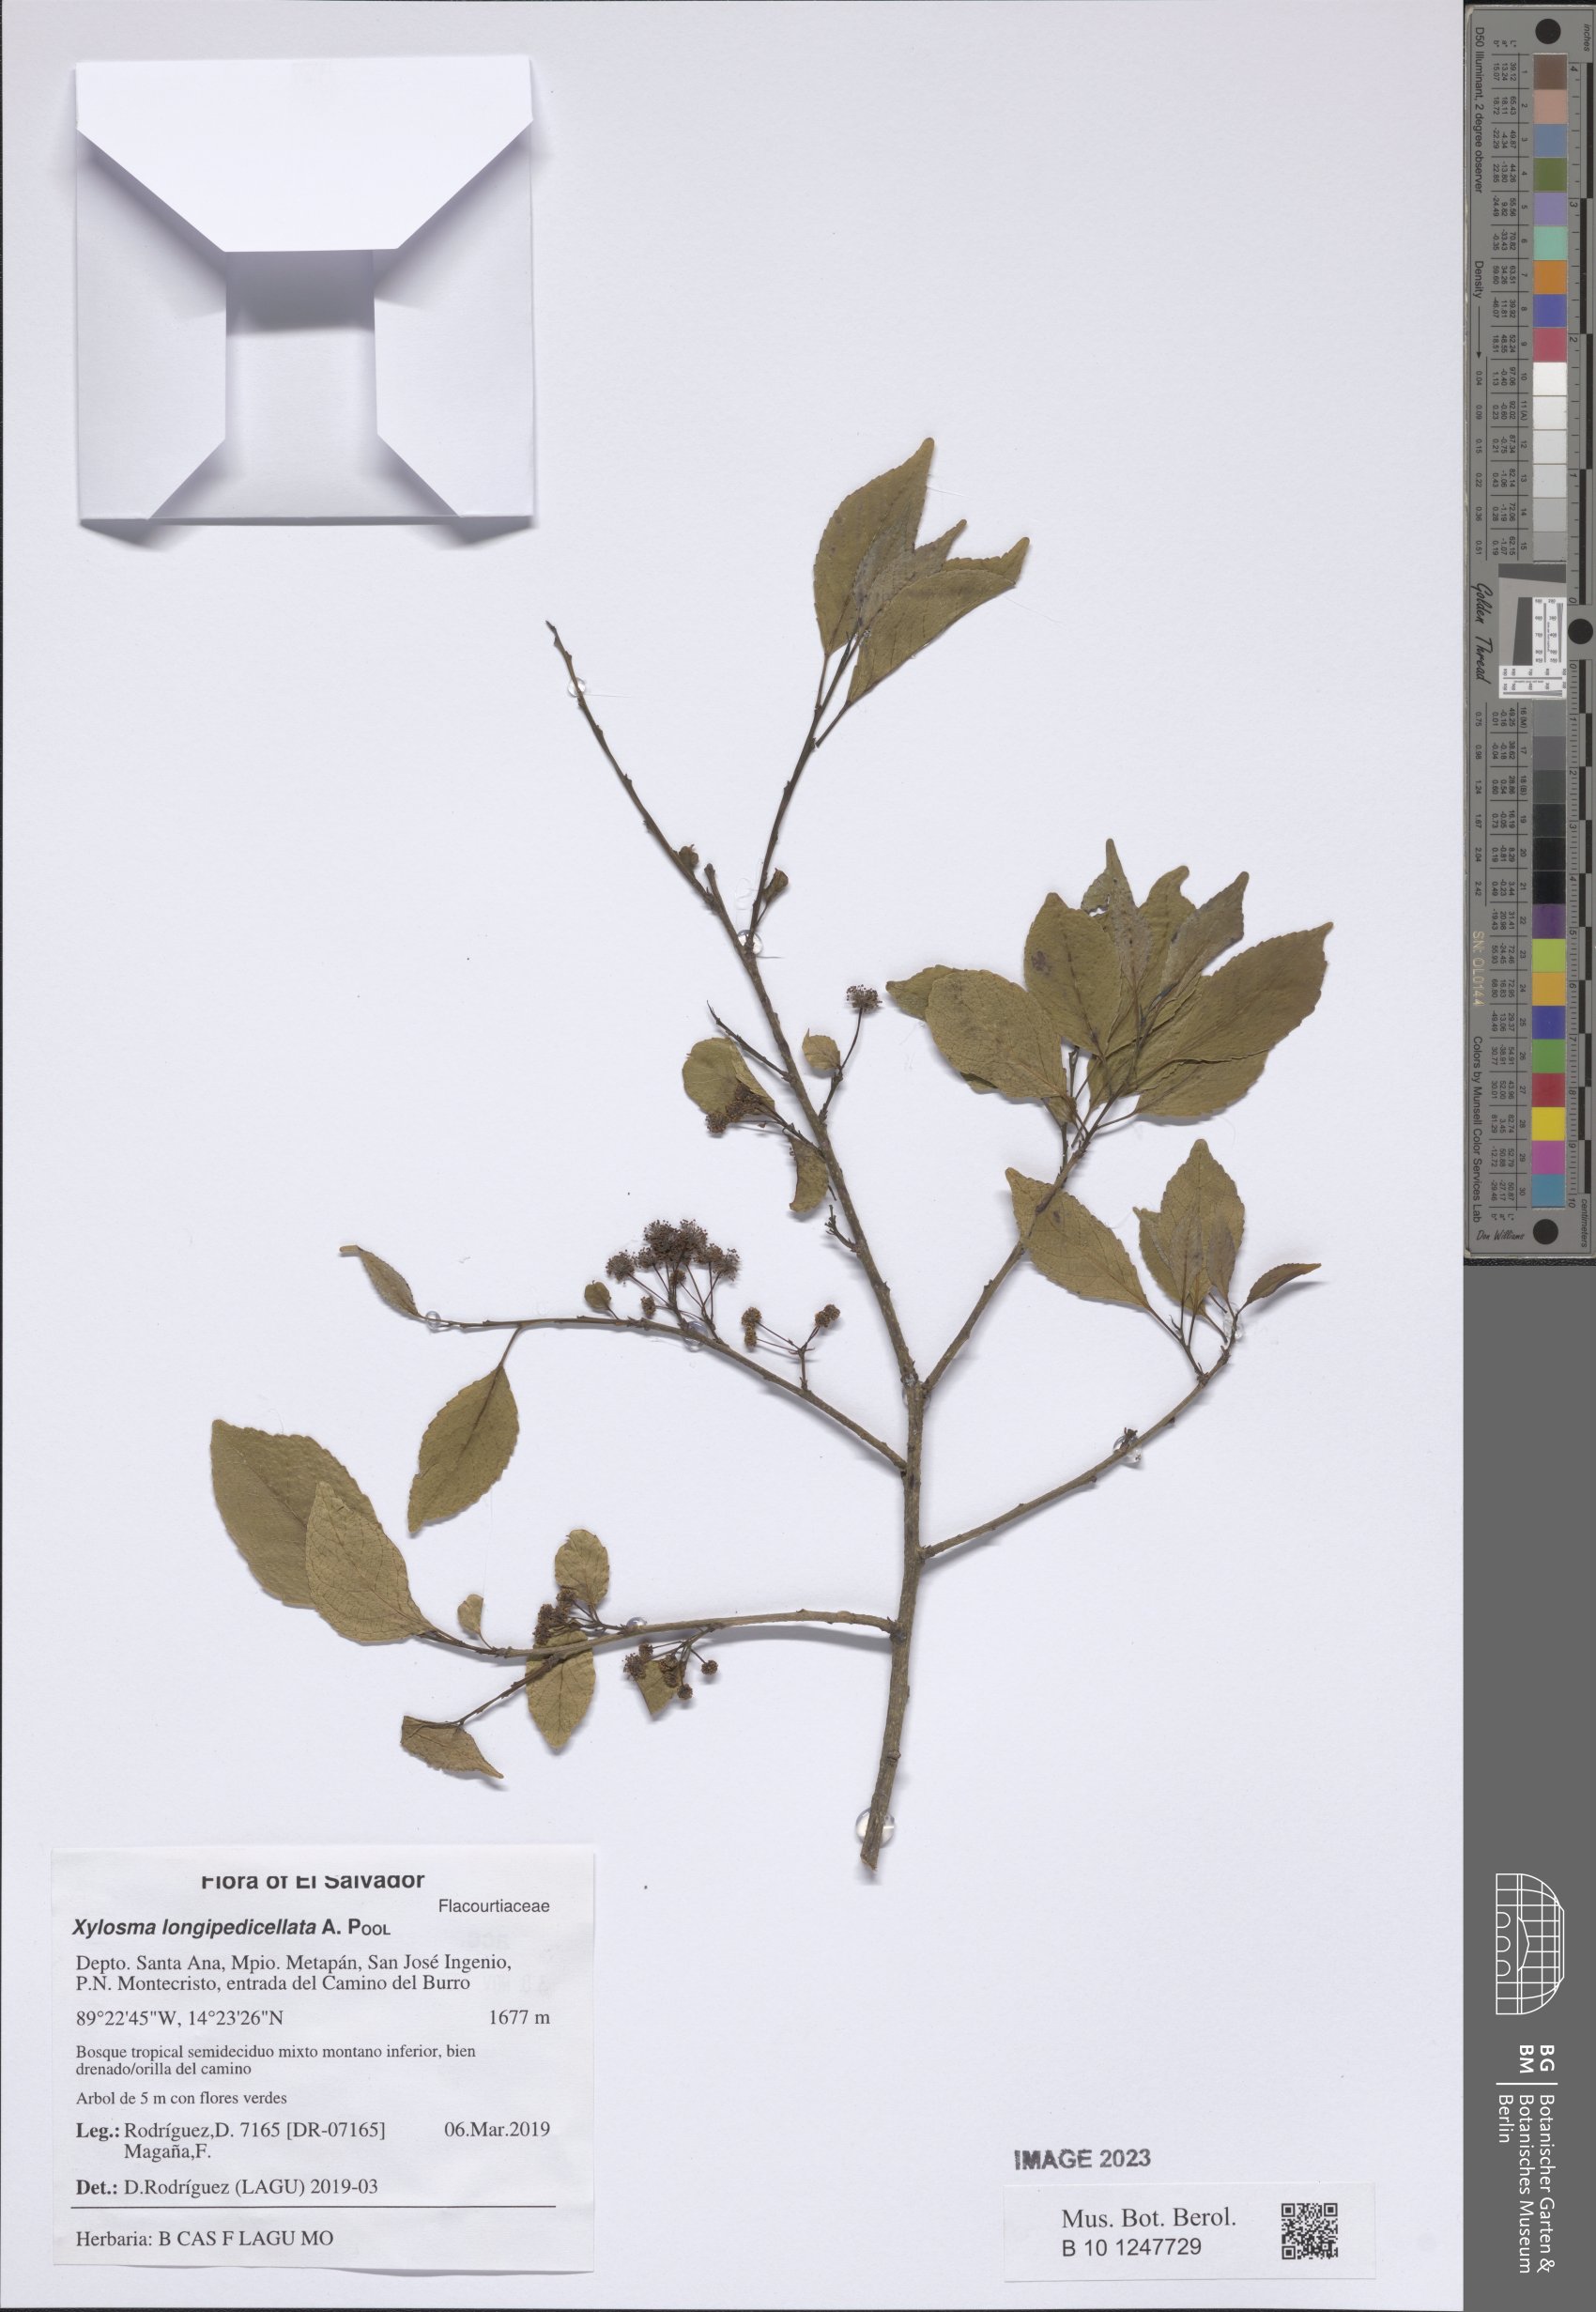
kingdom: Plantae
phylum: Tracheophyta
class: Magnoliopsida
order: Malpighiales
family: Salicaceae
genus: Xylosma
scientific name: Xylosma longipedicellata
